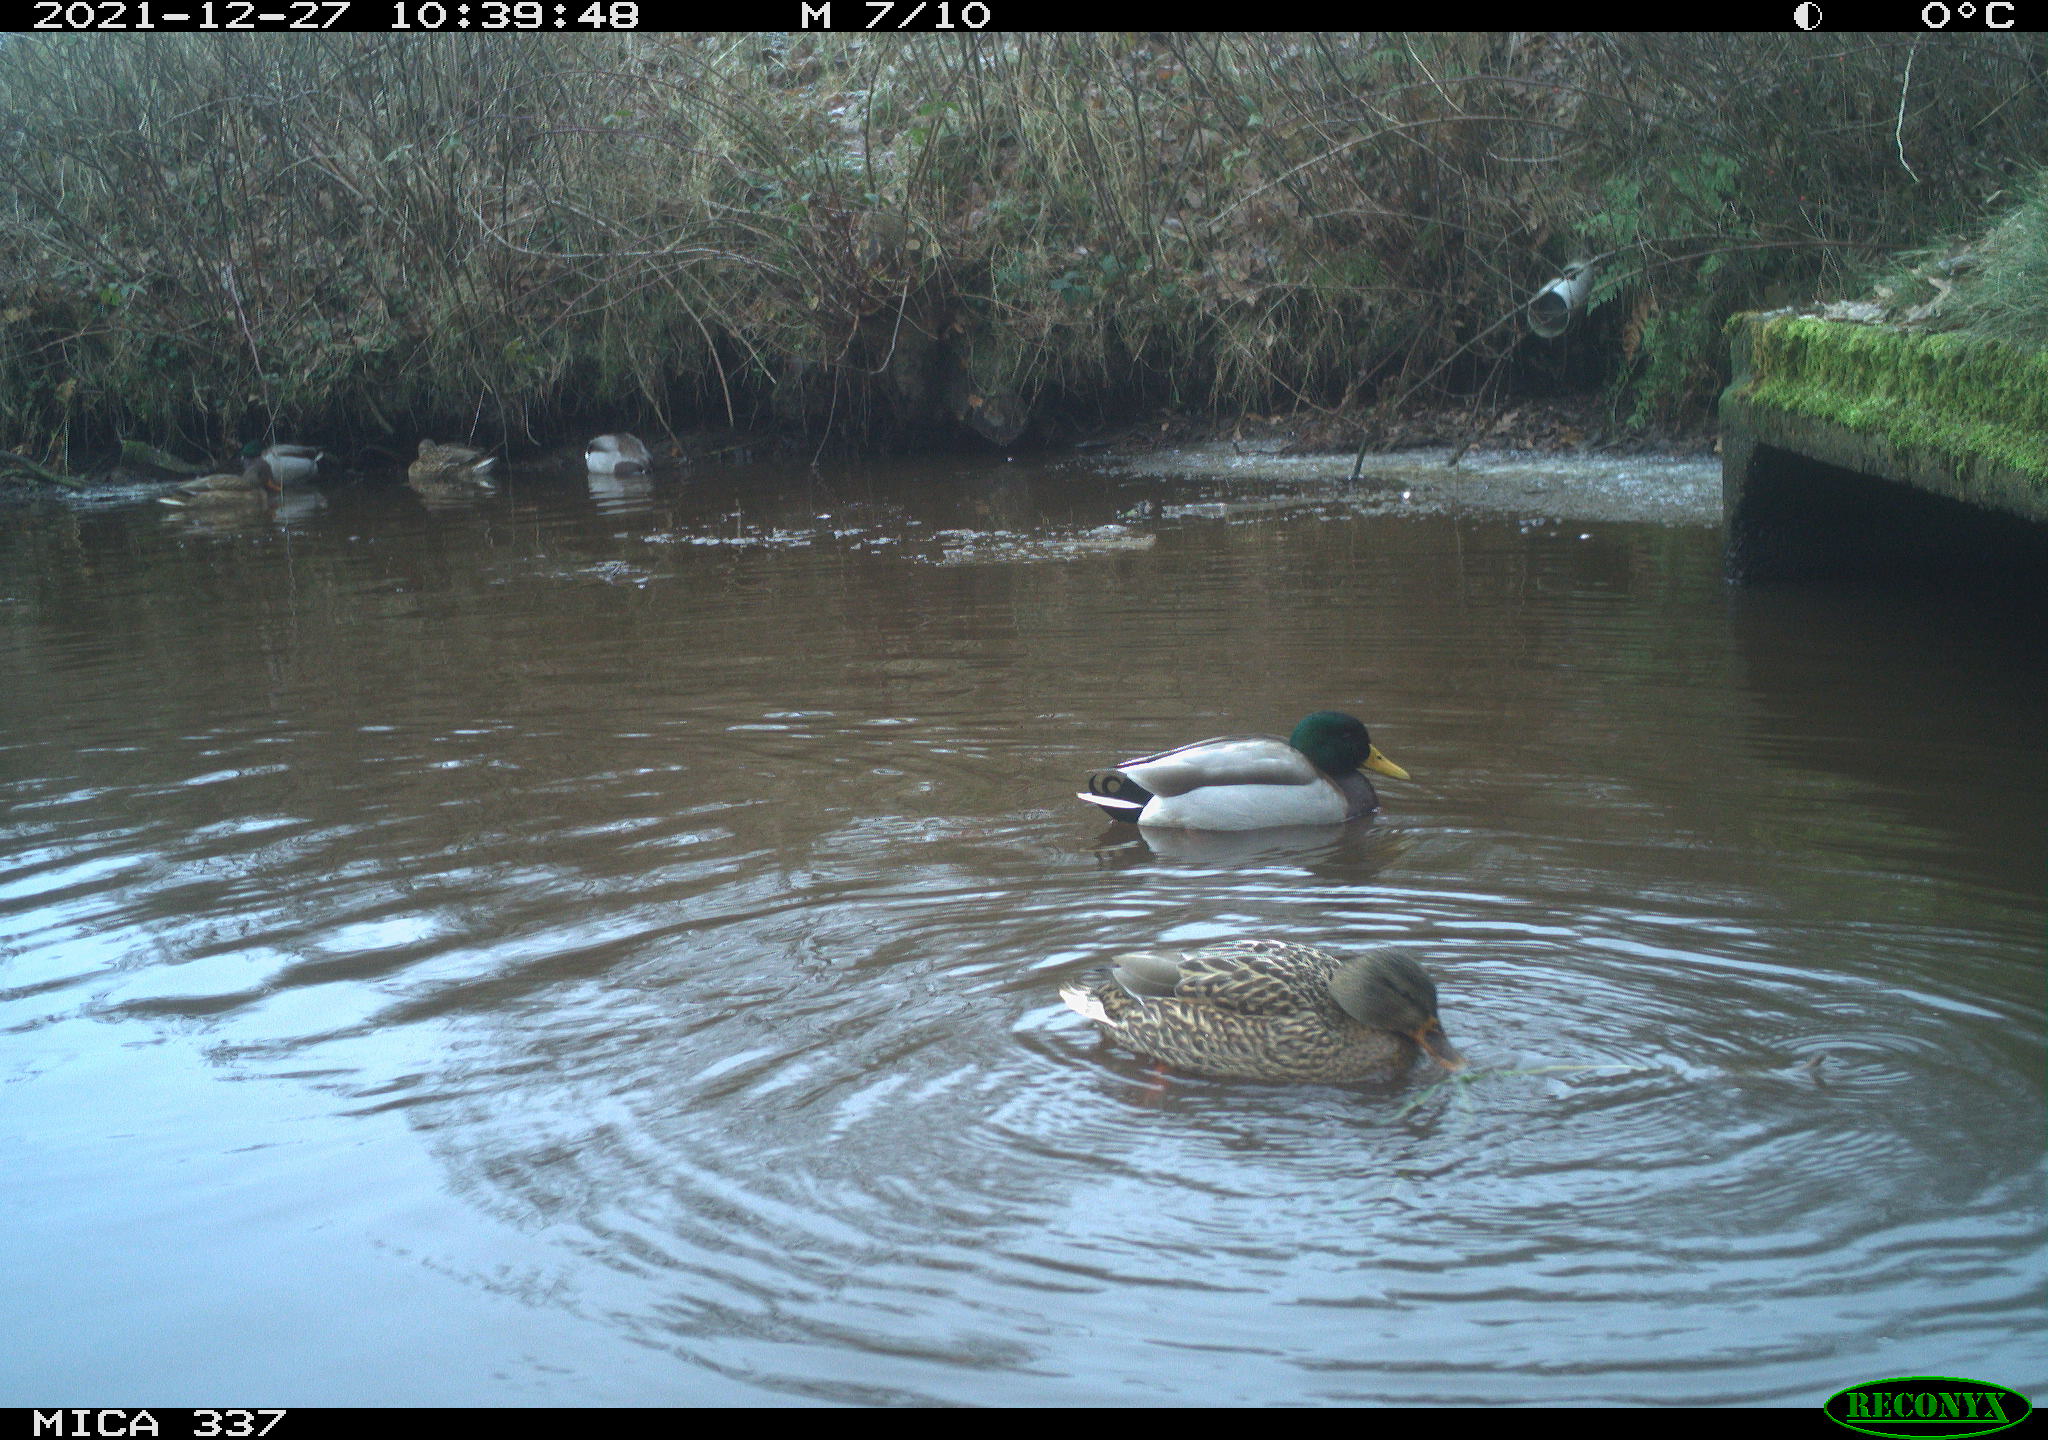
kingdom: Animalia
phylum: Chordata
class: Aves
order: Anseriformes
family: Anatidae
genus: Anas
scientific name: Anas platyrhynchos
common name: Mallard
